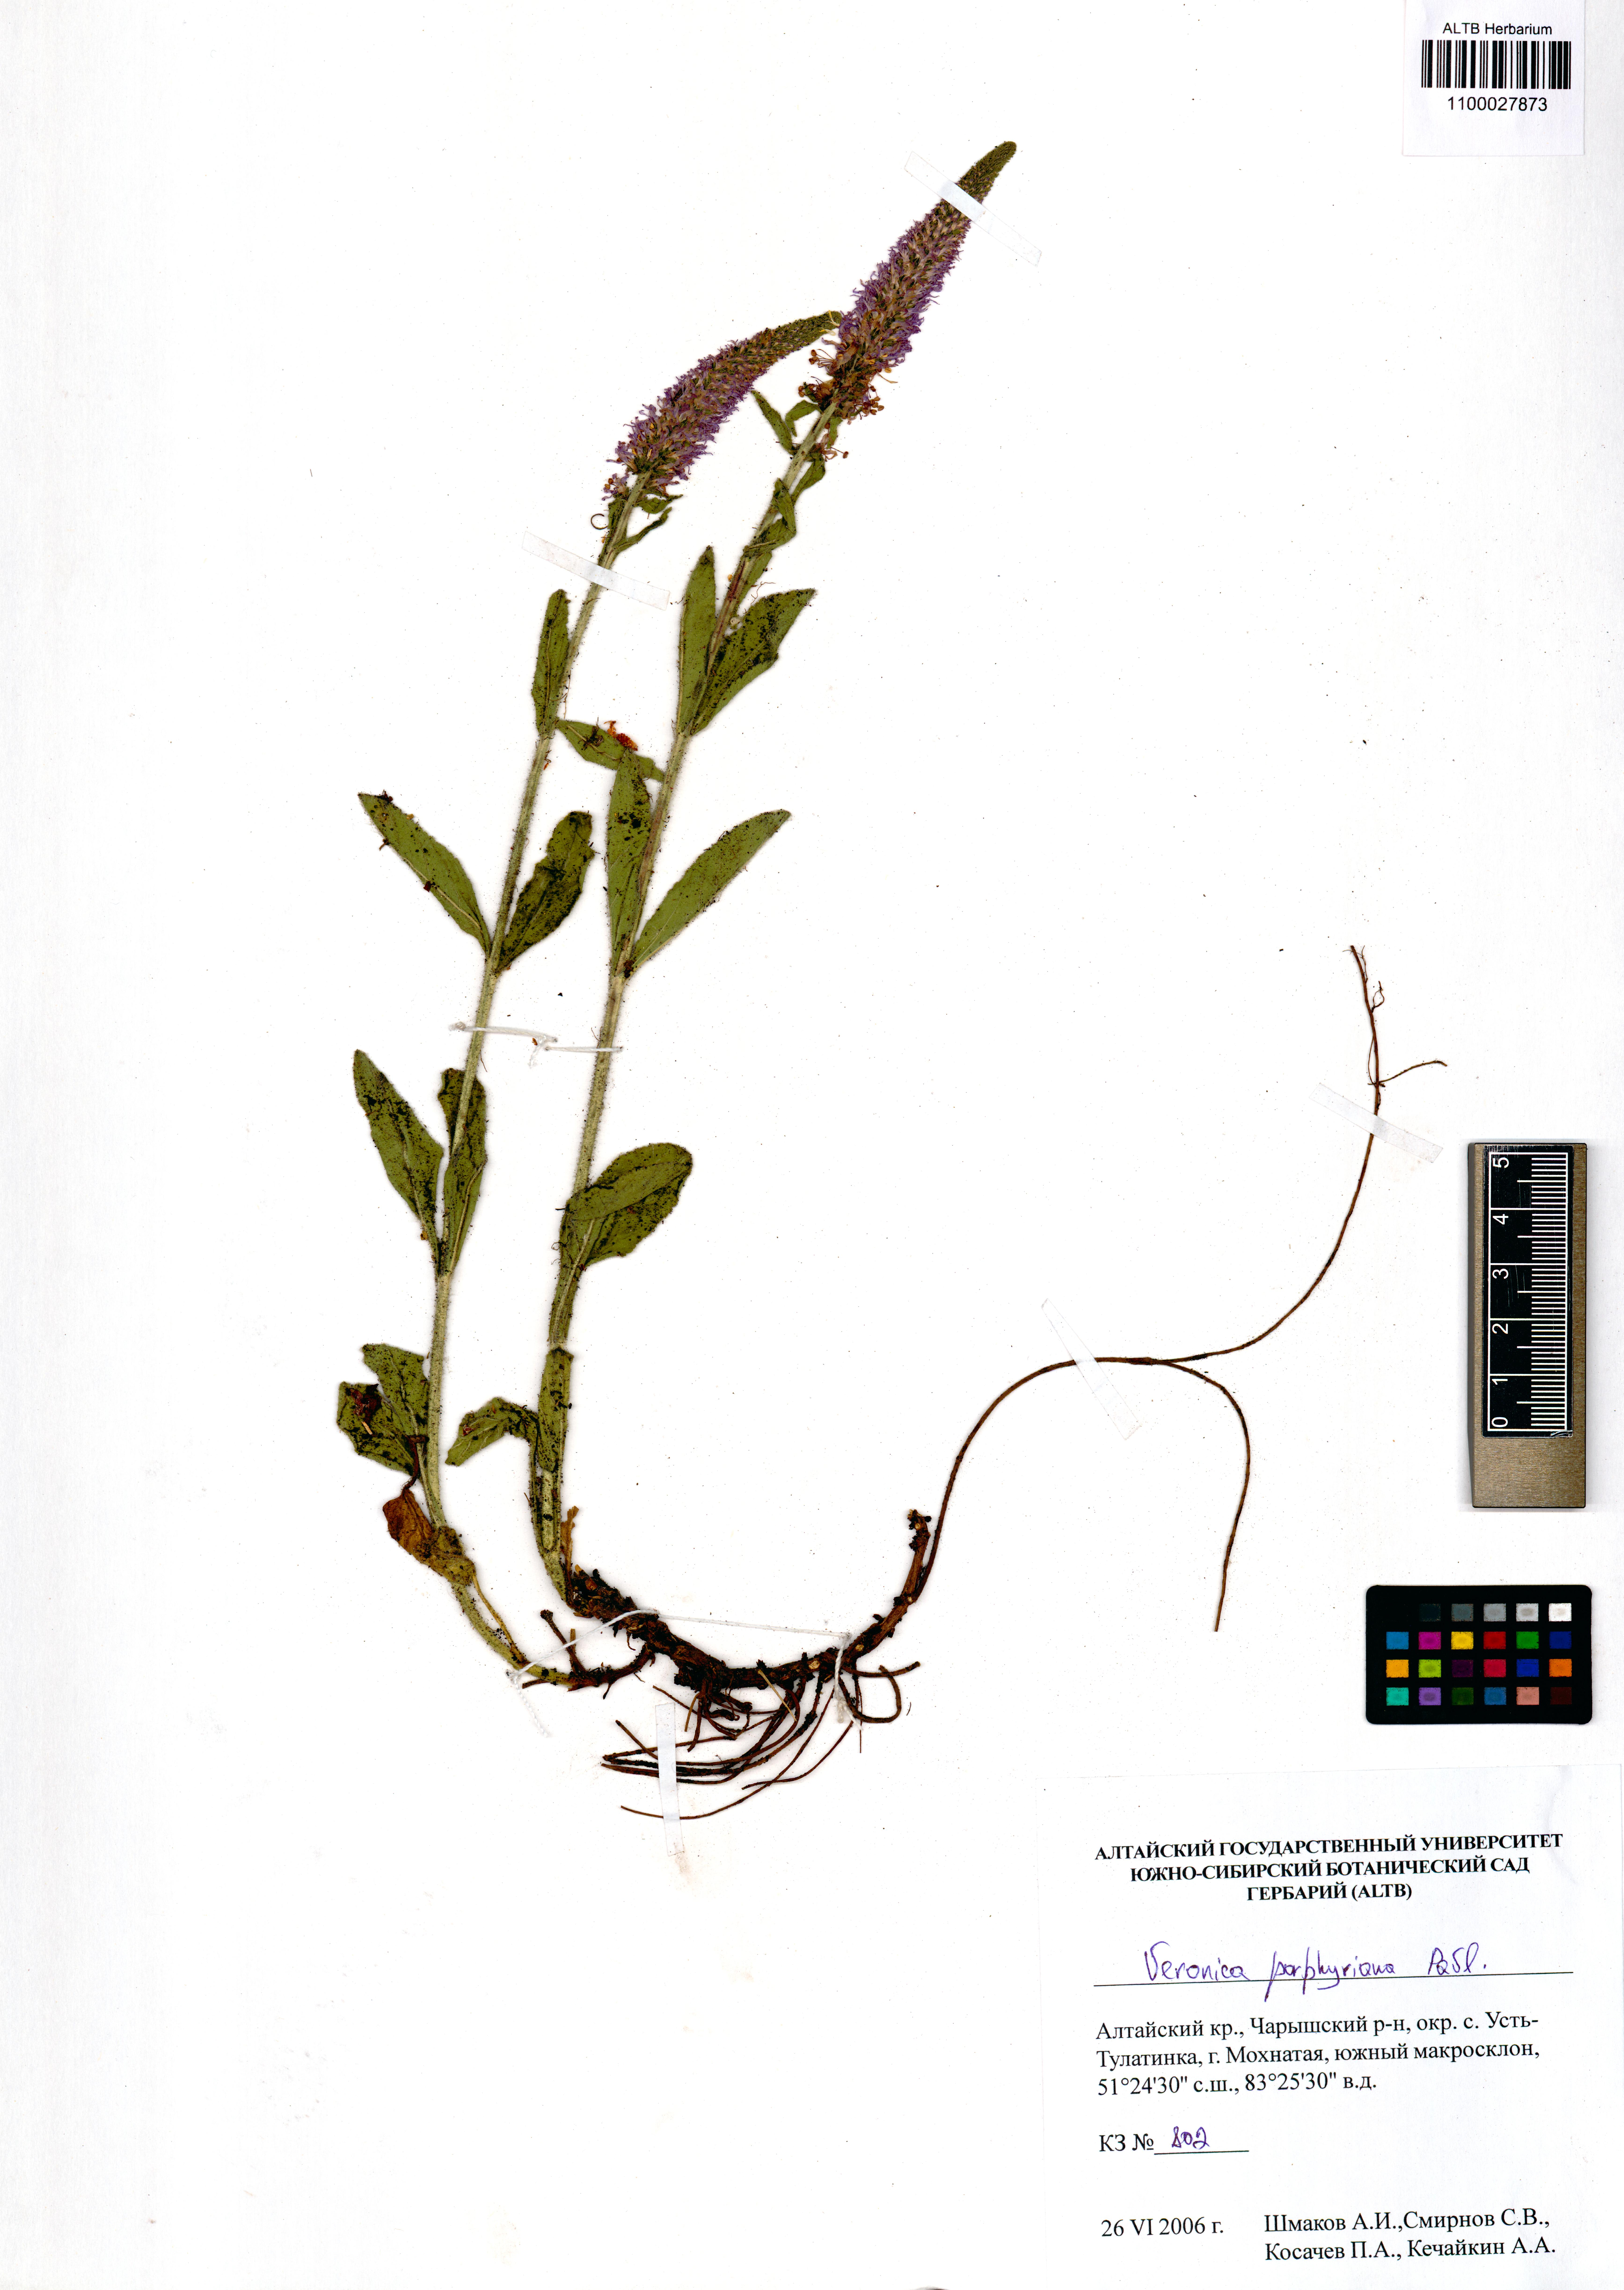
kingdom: Plantae
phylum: Tracheophyta
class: Magnoliopsida
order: Lamiales
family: Plantaginaceae
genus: Veronica
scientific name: Veronica porphyriana
